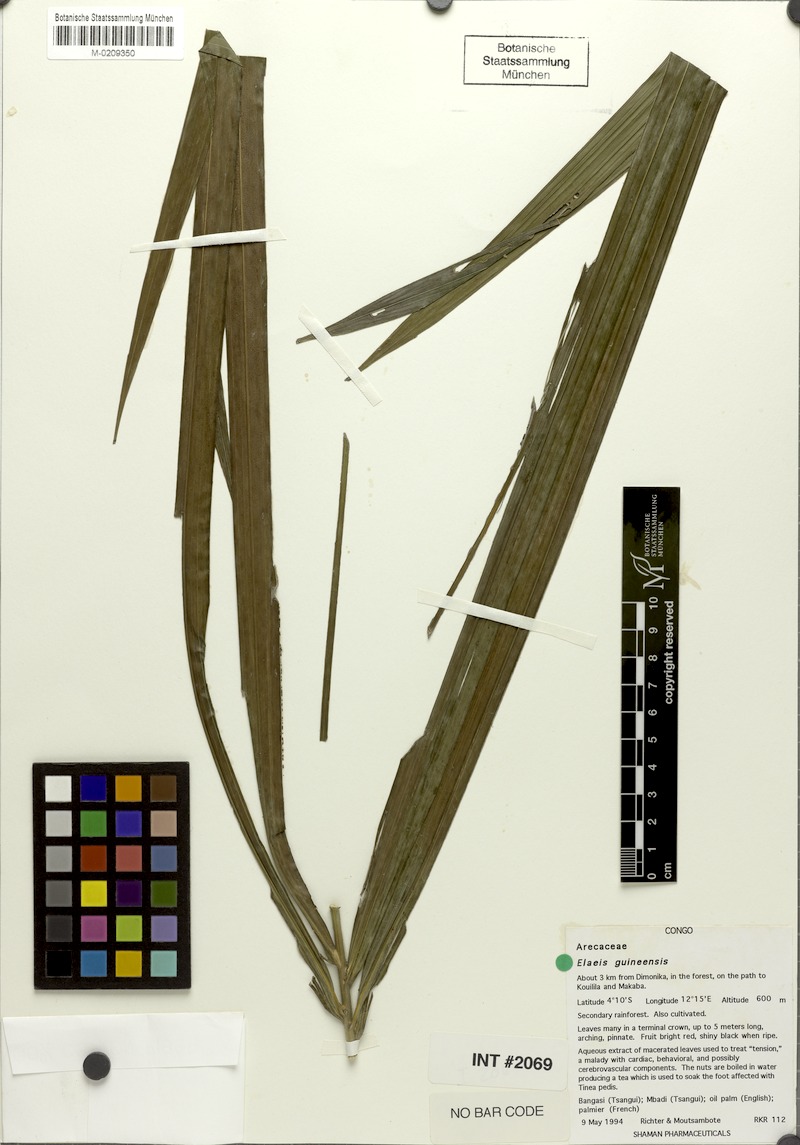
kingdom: Plantae
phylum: Tracheophyta
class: Liliopsida
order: Arecales
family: Arecaceae
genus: Elaeis
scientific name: Elaeis guineensis
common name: Oil palm
